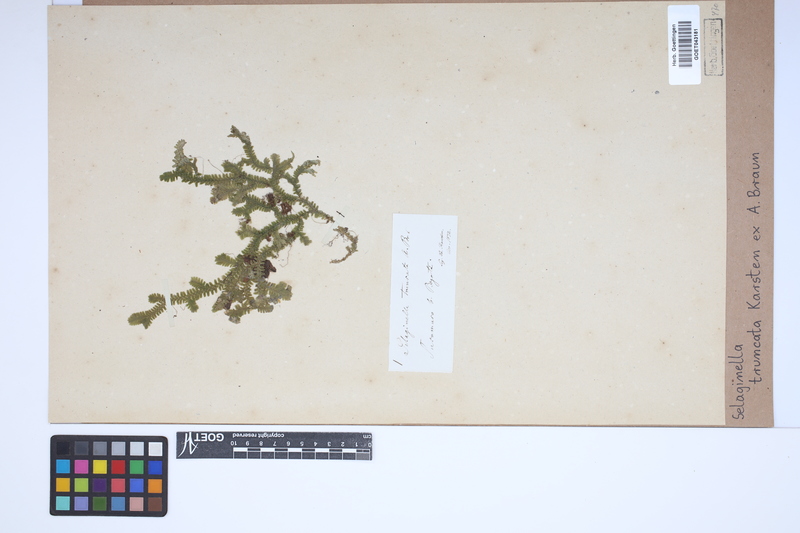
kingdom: Plantae
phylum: Tracheophyta
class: Lycopodiopsida
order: Selaginellales
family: Selaginellaceae
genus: Selaginella
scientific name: Selaginella truncata
